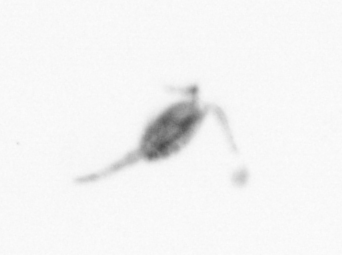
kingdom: Animalia
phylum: Arthropoda
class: Copepoda
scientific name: Copepoda
